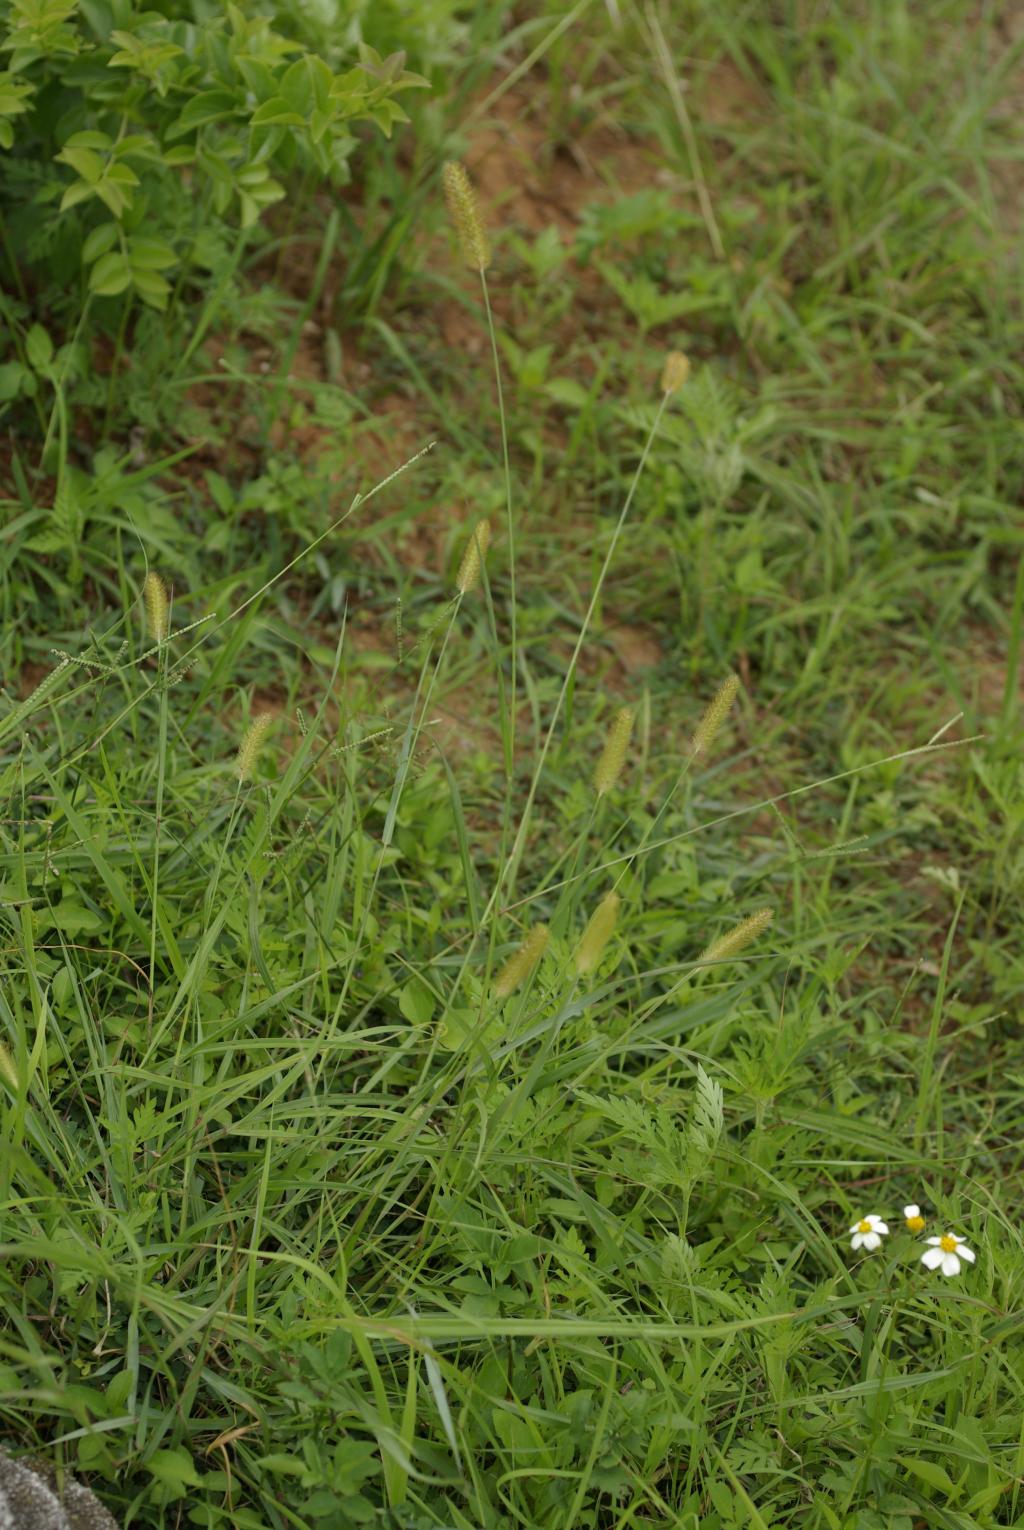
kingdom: Plantae
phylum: Tracheophyta
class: Liliopsida
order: Poales
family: Poaceae
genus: Setaria
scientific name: Setaria parviflora
